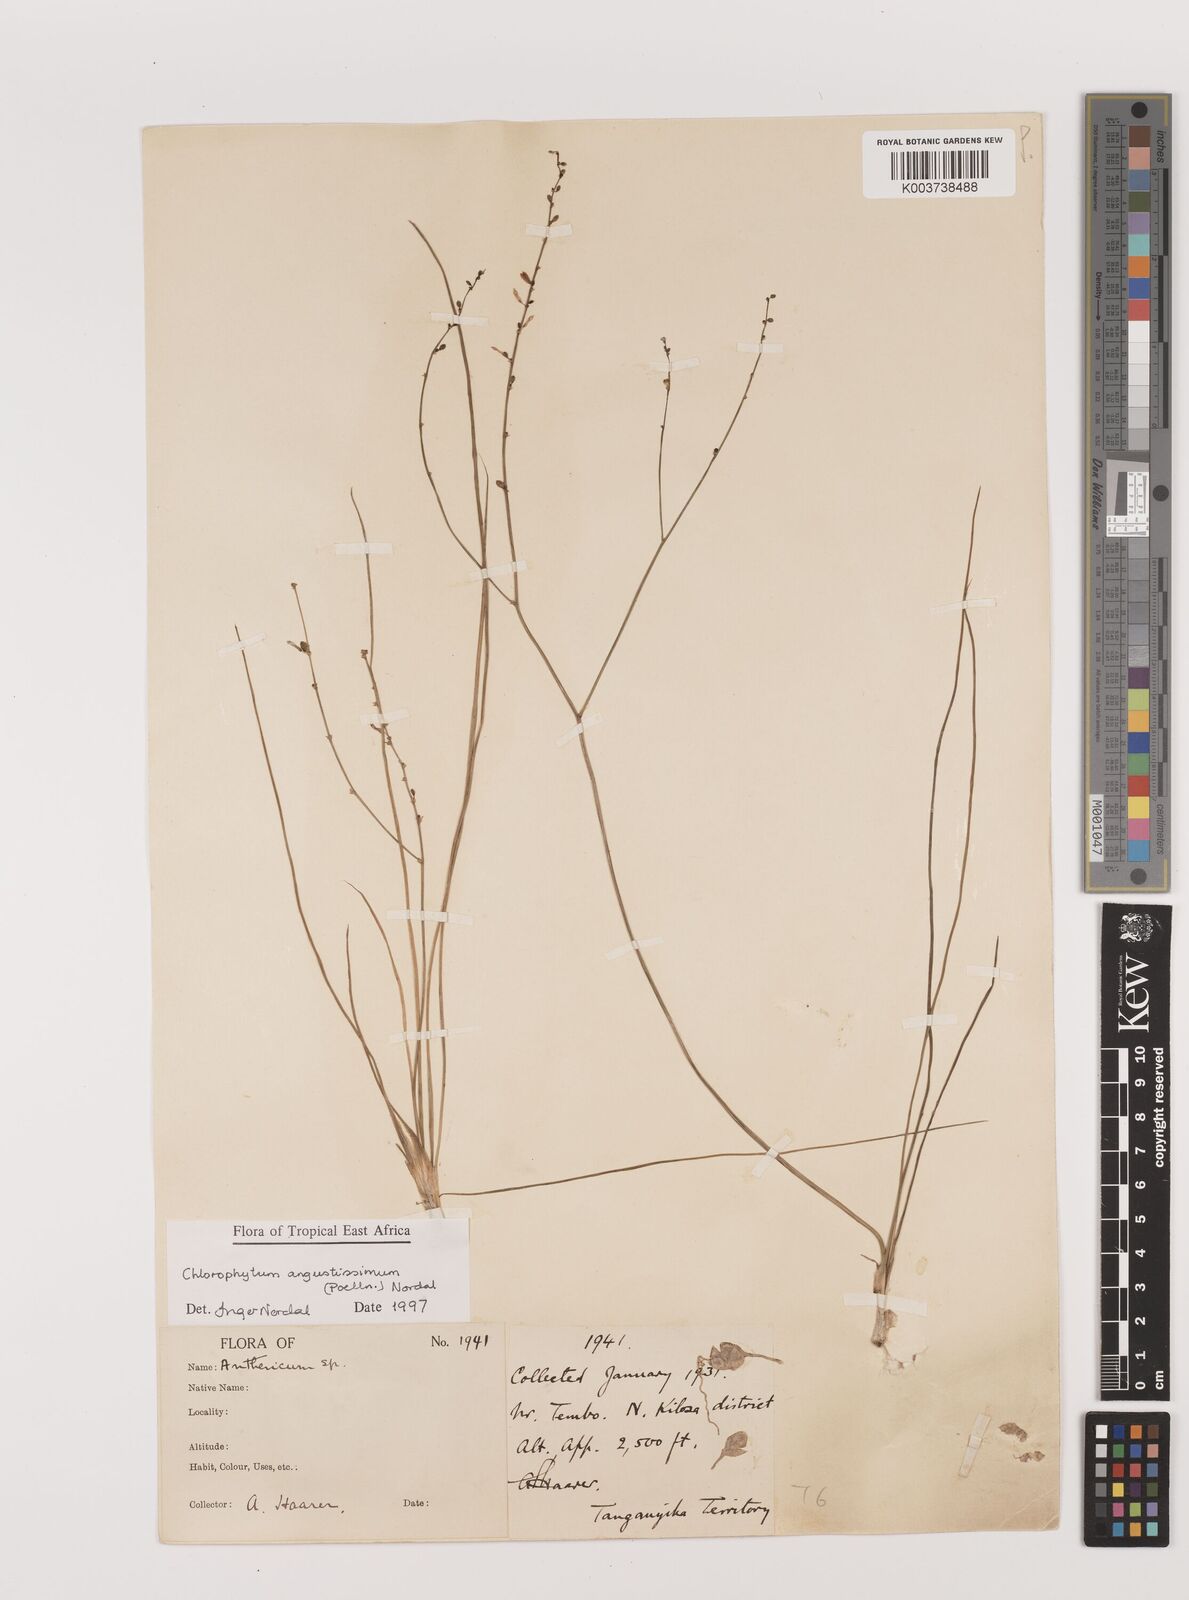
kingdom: Plantae
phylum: Tracheophyta
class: Liliopsida
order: Asparagales
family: Asparagaceae
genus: Chlorophytum
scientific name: Chlorophytum angustissimum
